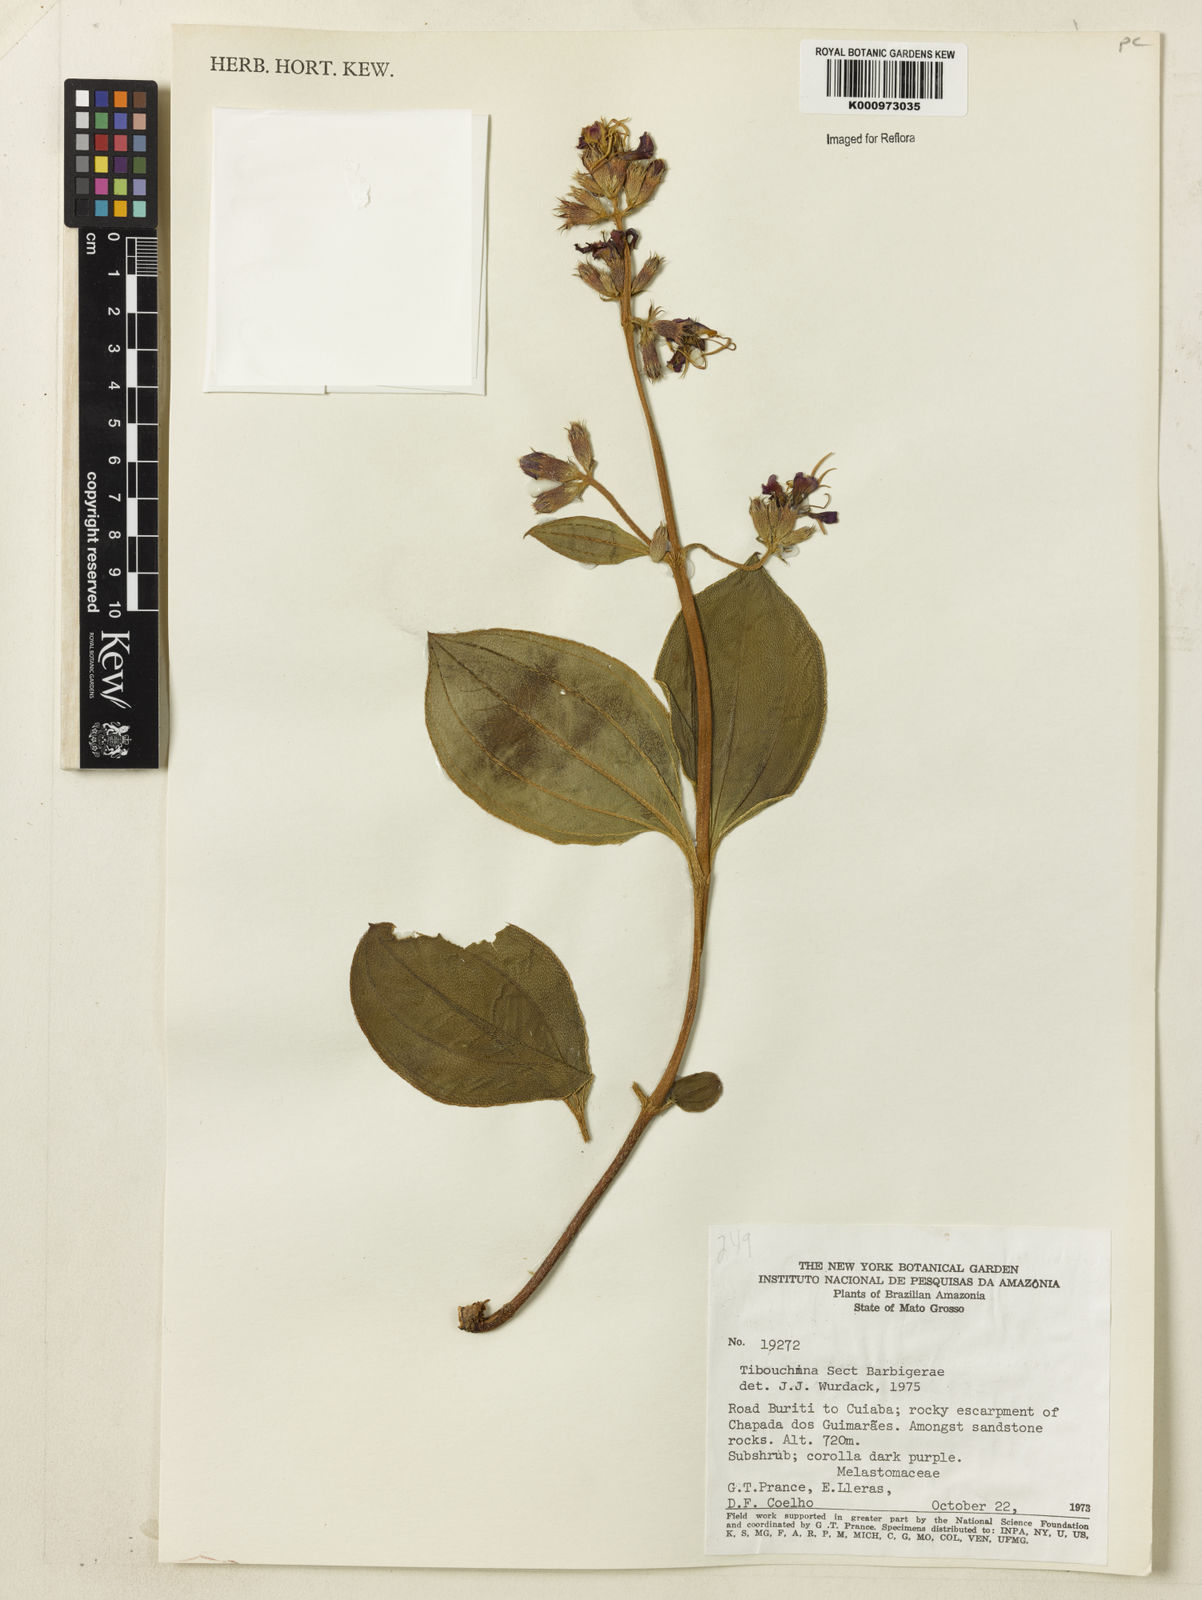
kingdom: Plantae
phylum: Tracheophyta
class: Magnoliopsida
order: Myrtales
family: Melastomataceae
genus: Tibouchina
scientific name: Tibouchina
